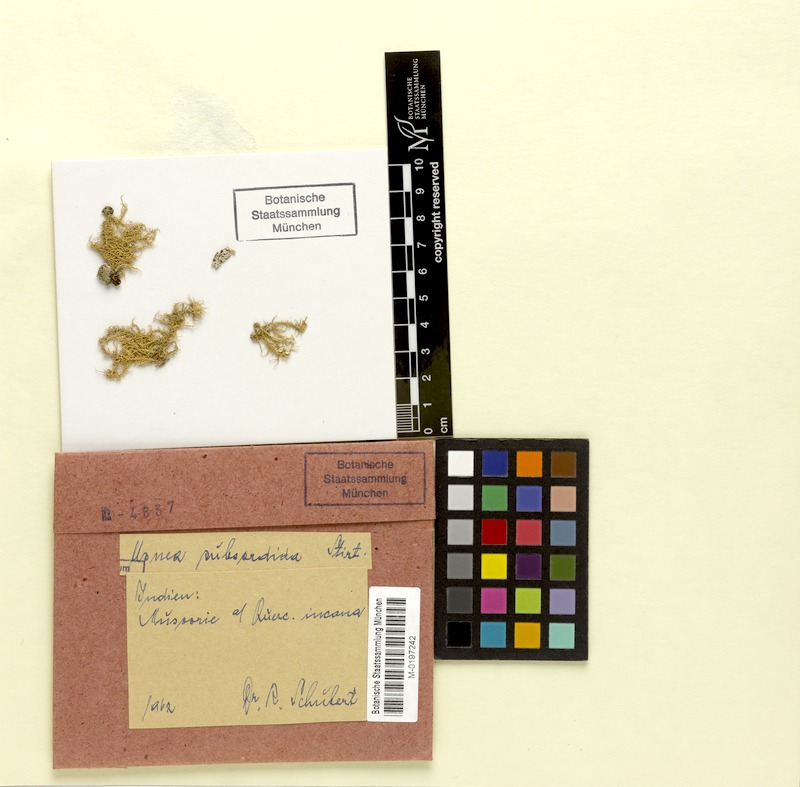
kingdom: Fungi
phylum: Ascomycota
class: Lecanoromycetes
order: Lecanorales
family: Parmeliaceae
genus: Usnea
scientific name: Usnea subsordida
